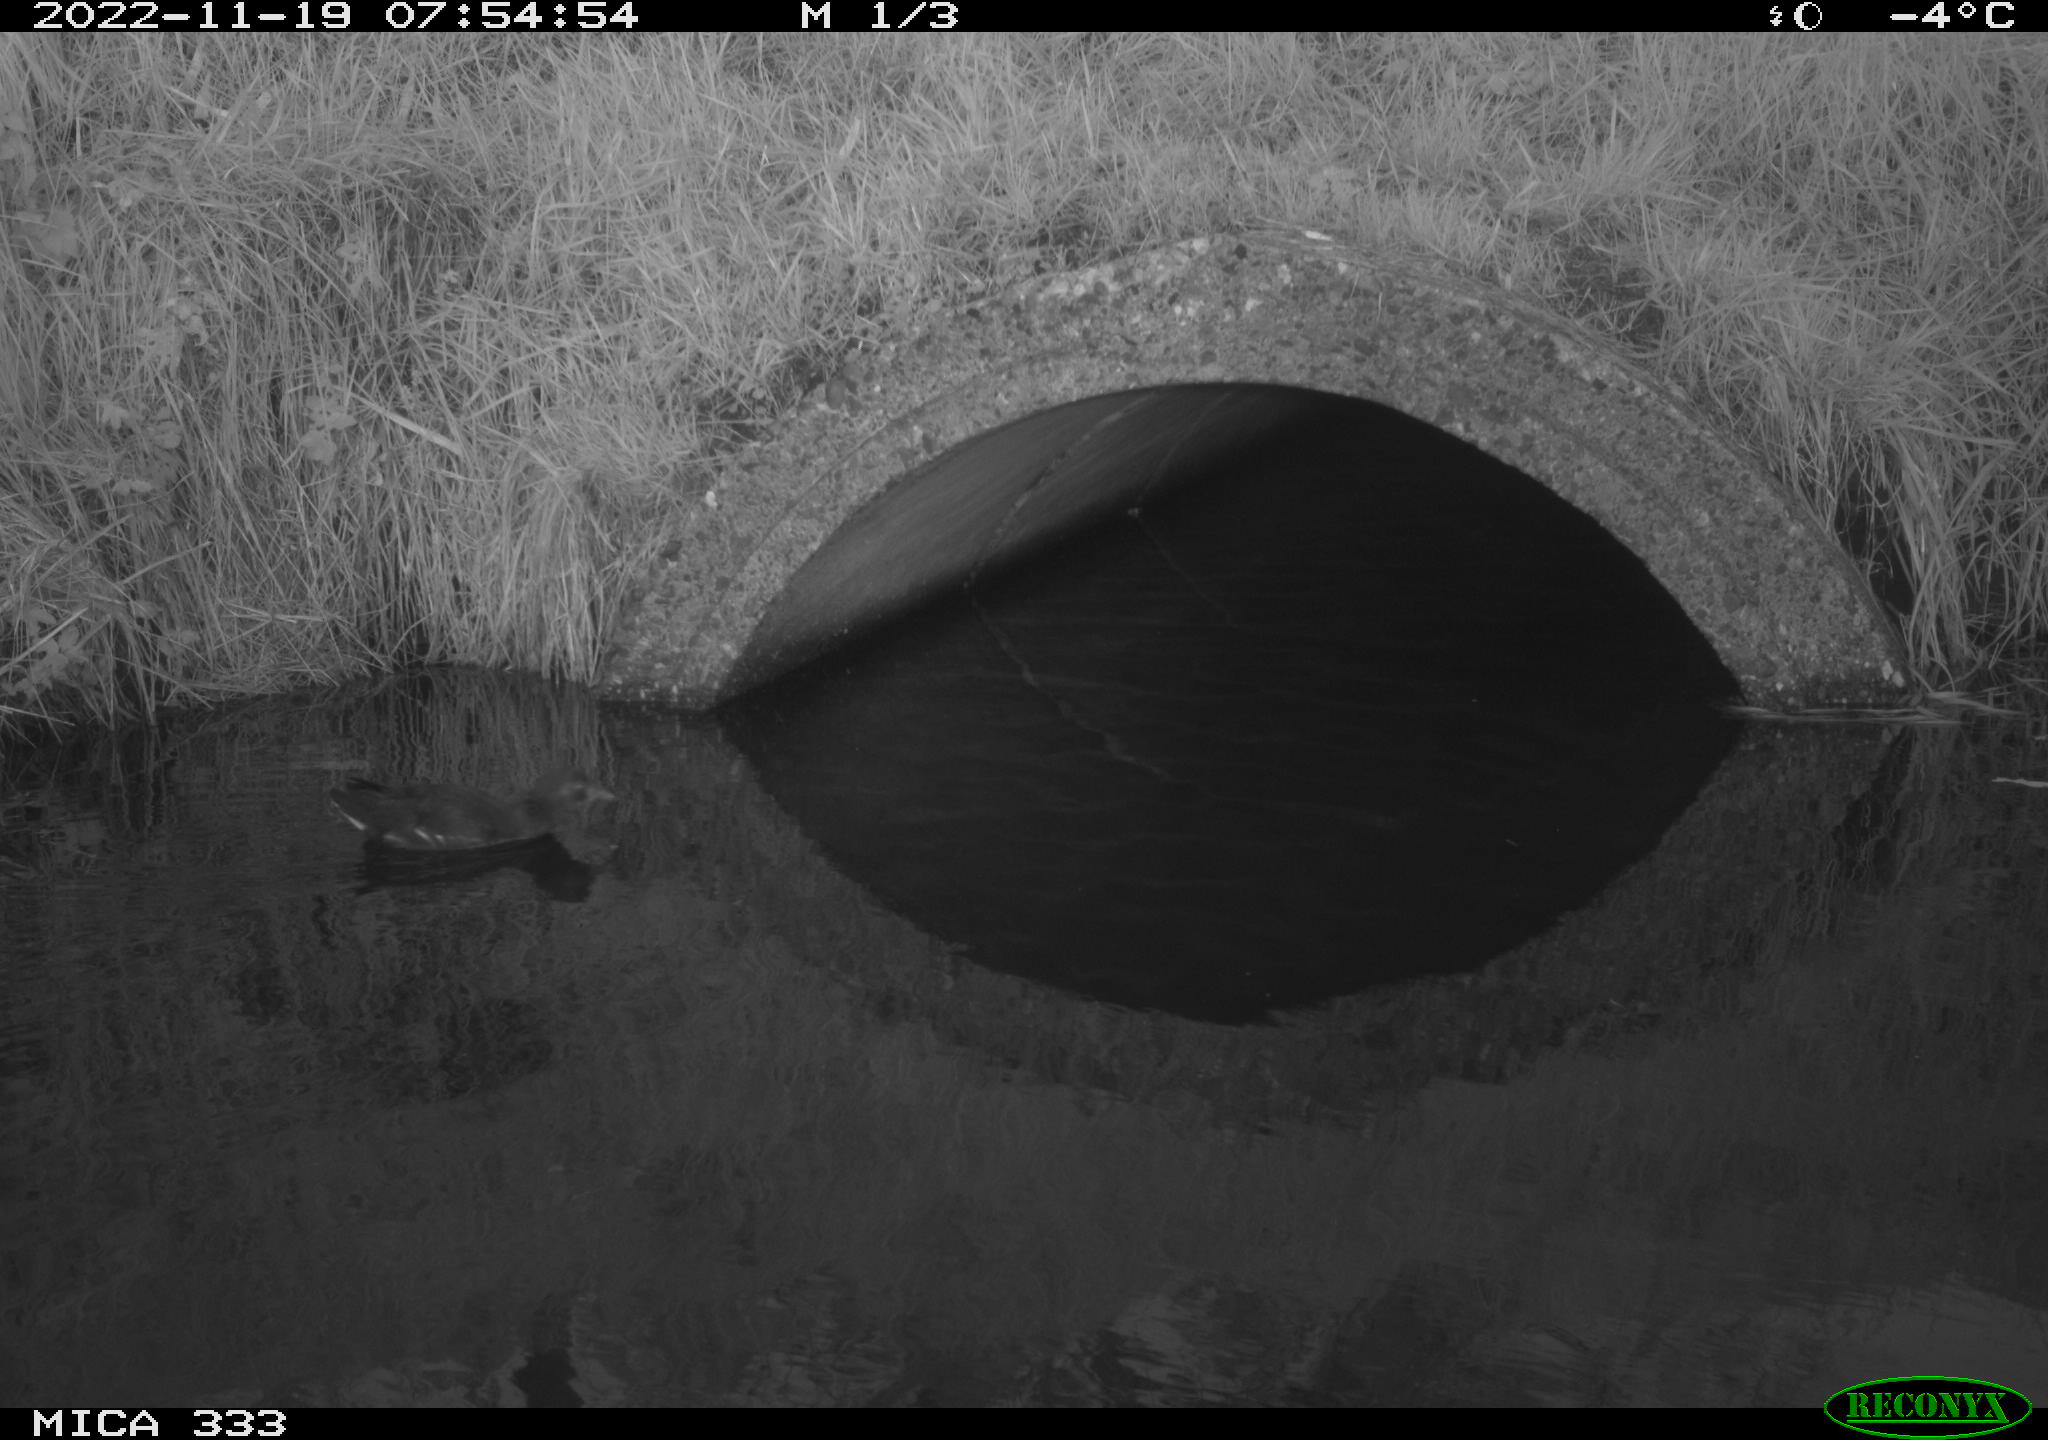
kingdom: Animalia
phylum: Chordata
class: Aves
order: Gruiformes
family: Rallidae
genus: Gallinula
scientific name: Gallinula chloropus
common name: Common moorhen
